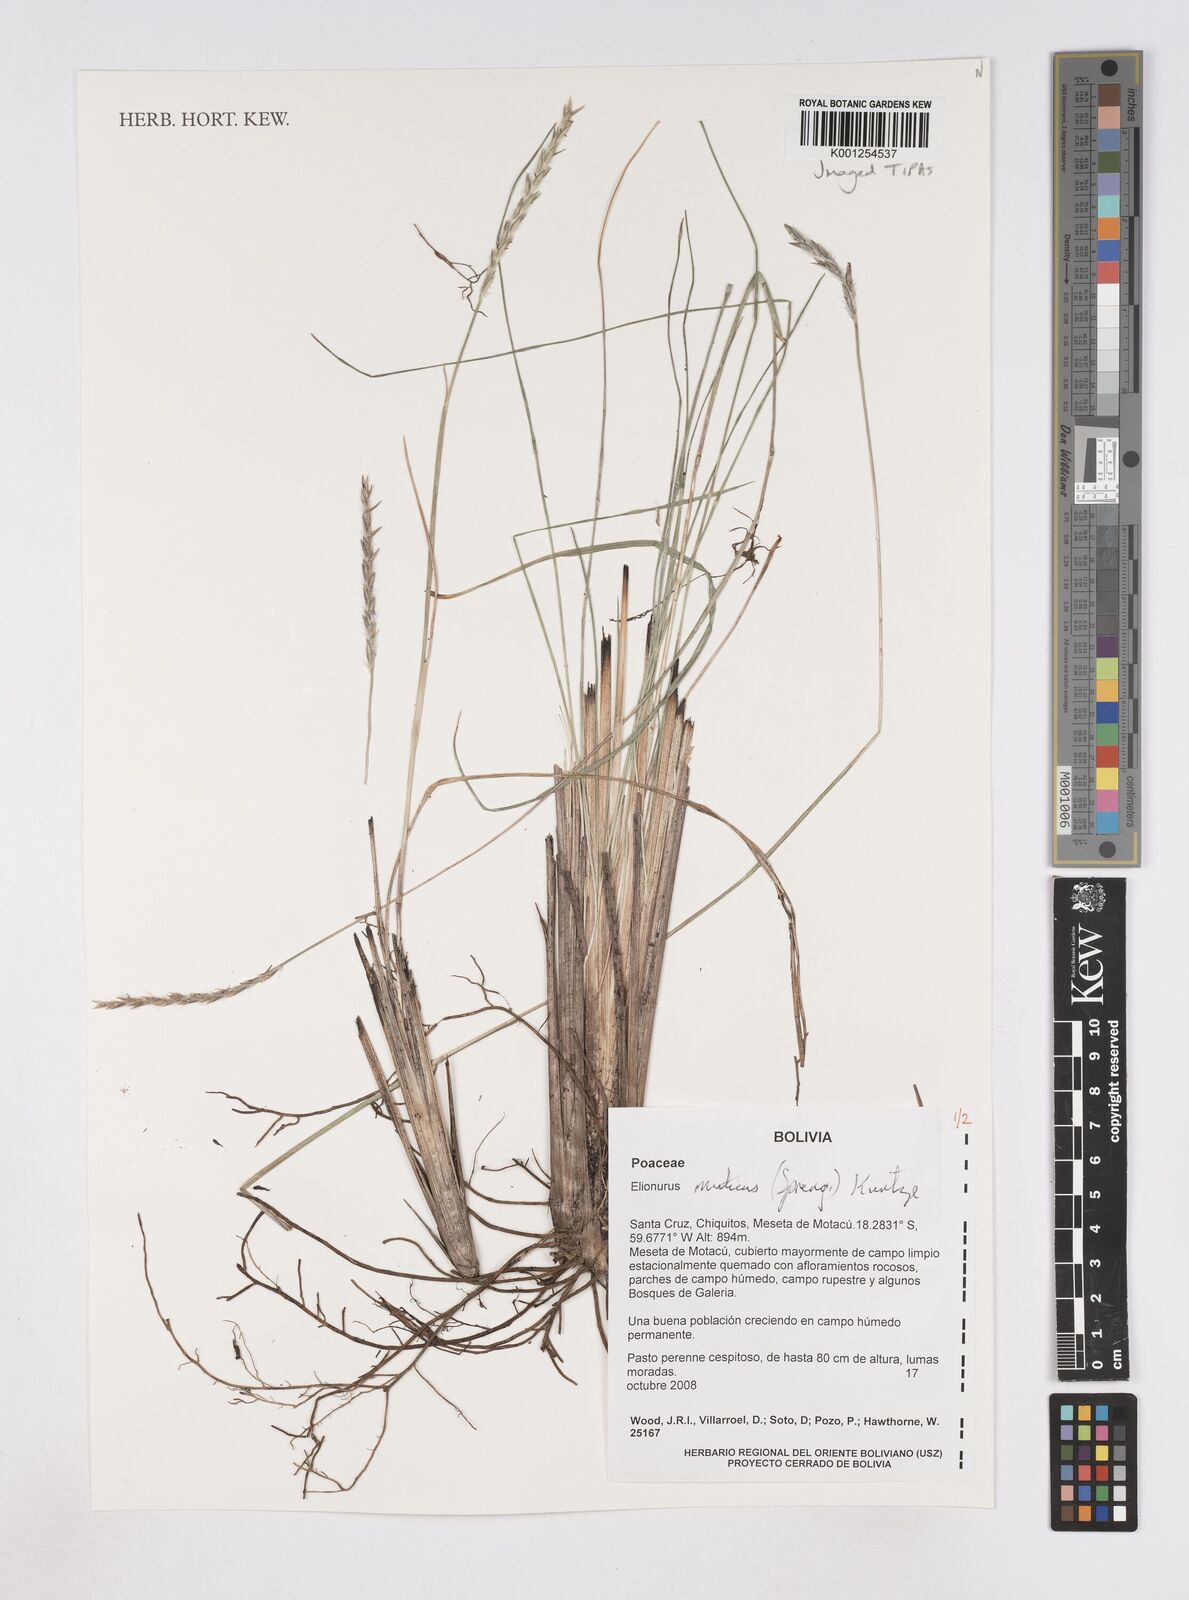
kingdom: Plantae
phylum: Tracheophyta
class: Liliopsida
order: Poales
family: Poaceae
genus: Elionurus
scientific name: Elionurus muticus
